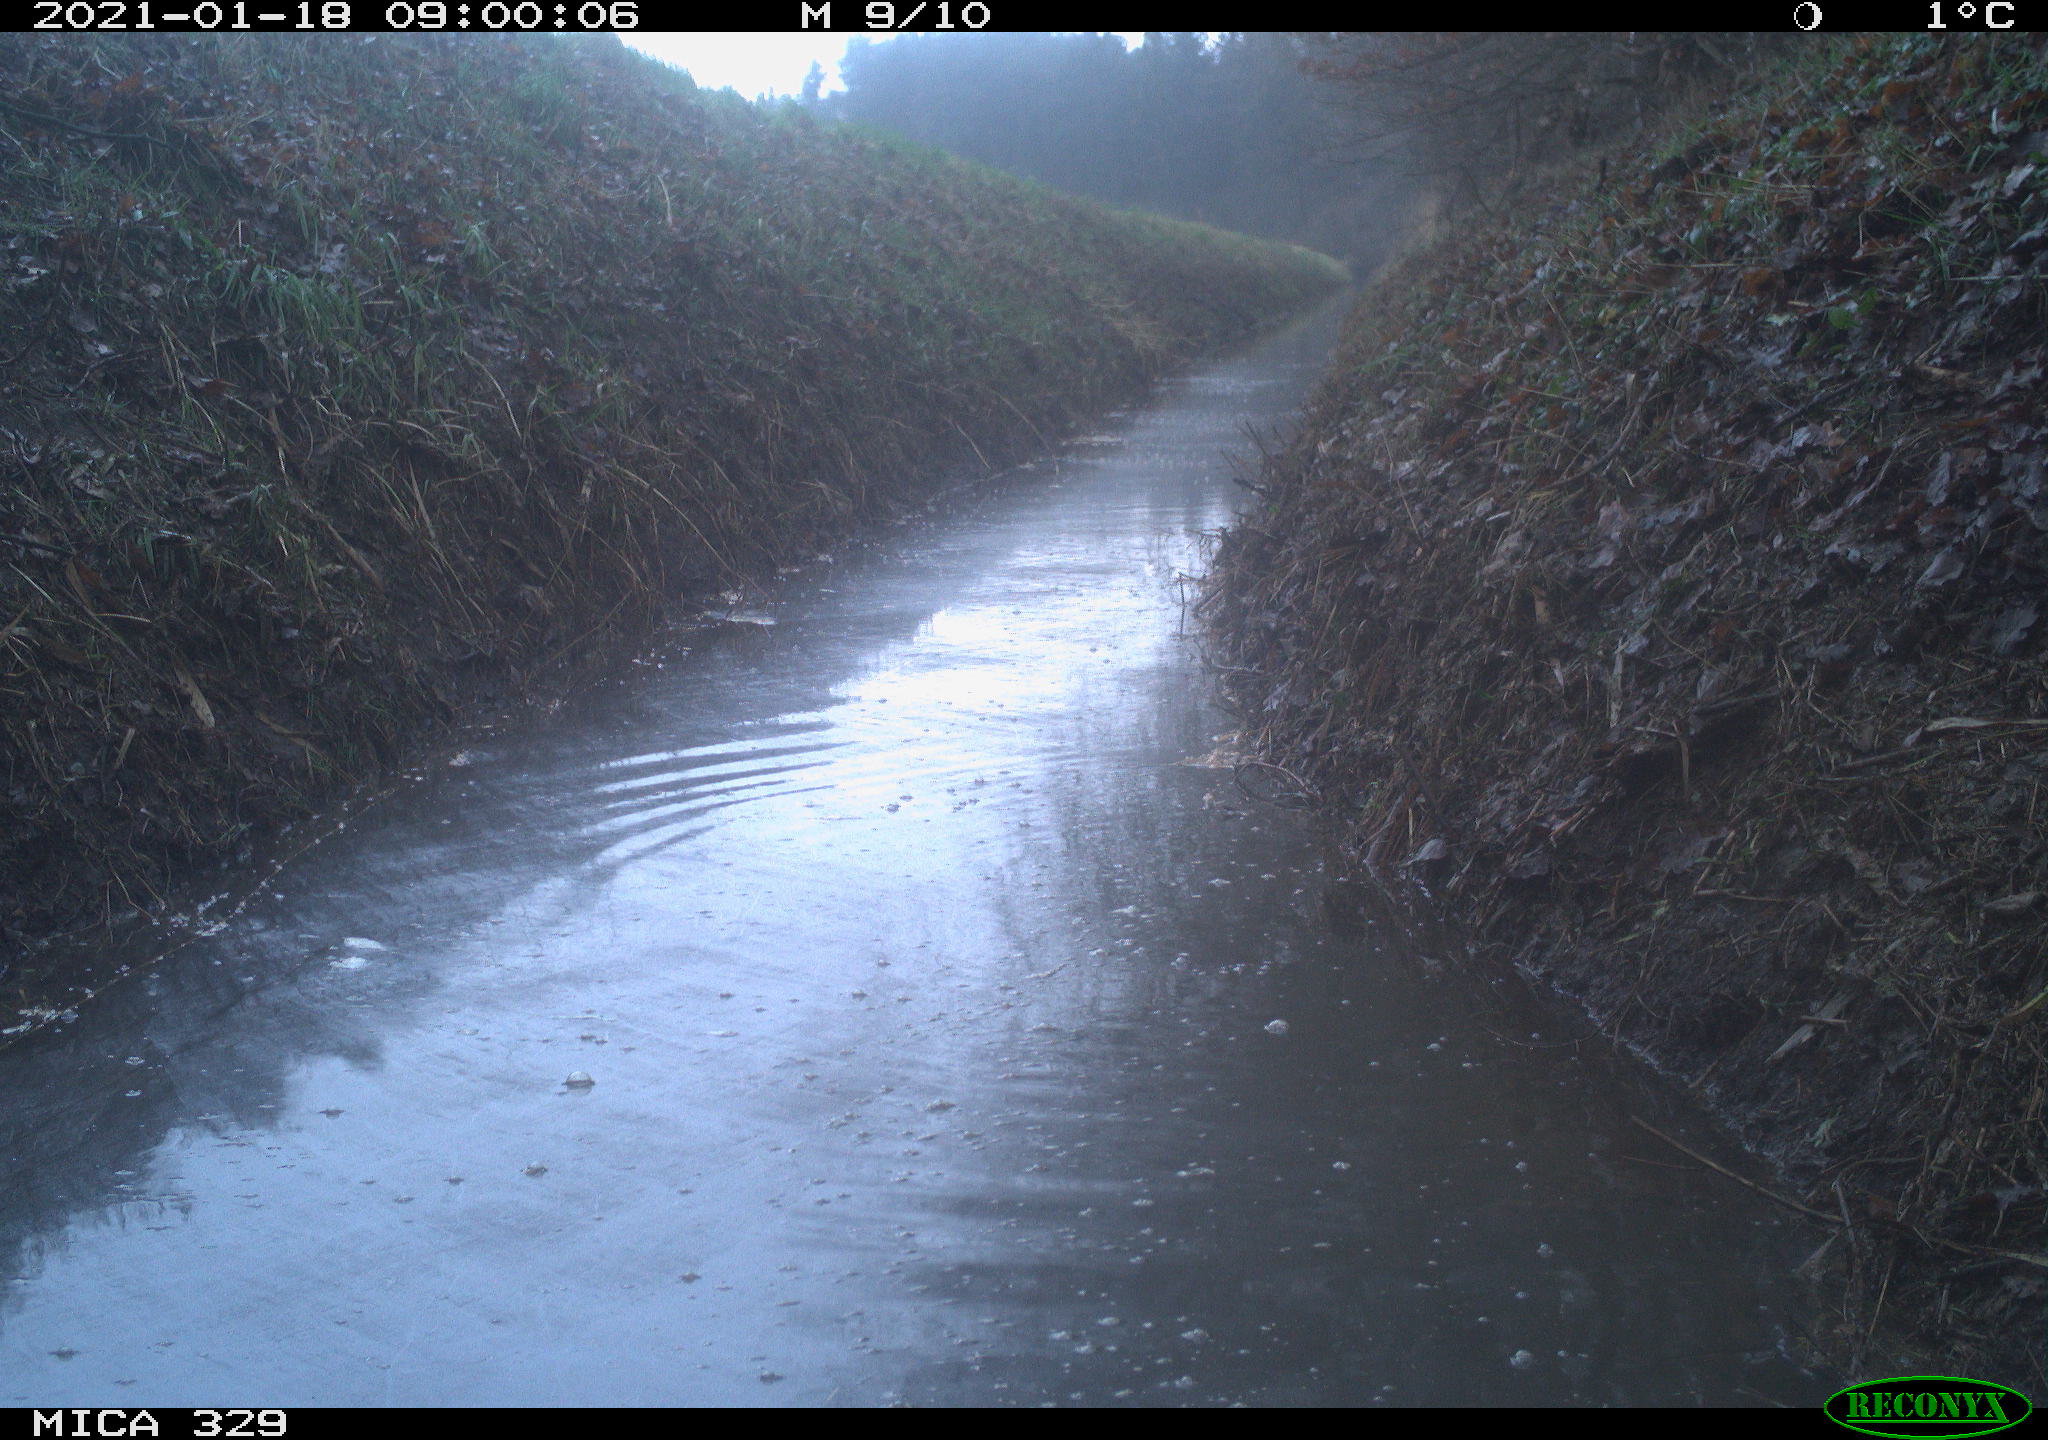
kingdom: Animalia
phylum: Chordata
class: Mammalia
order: Rodentia
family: Sciuridae
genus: Sciurus
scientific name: Sciurus vulgaris
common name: Eurasian red squirrel
